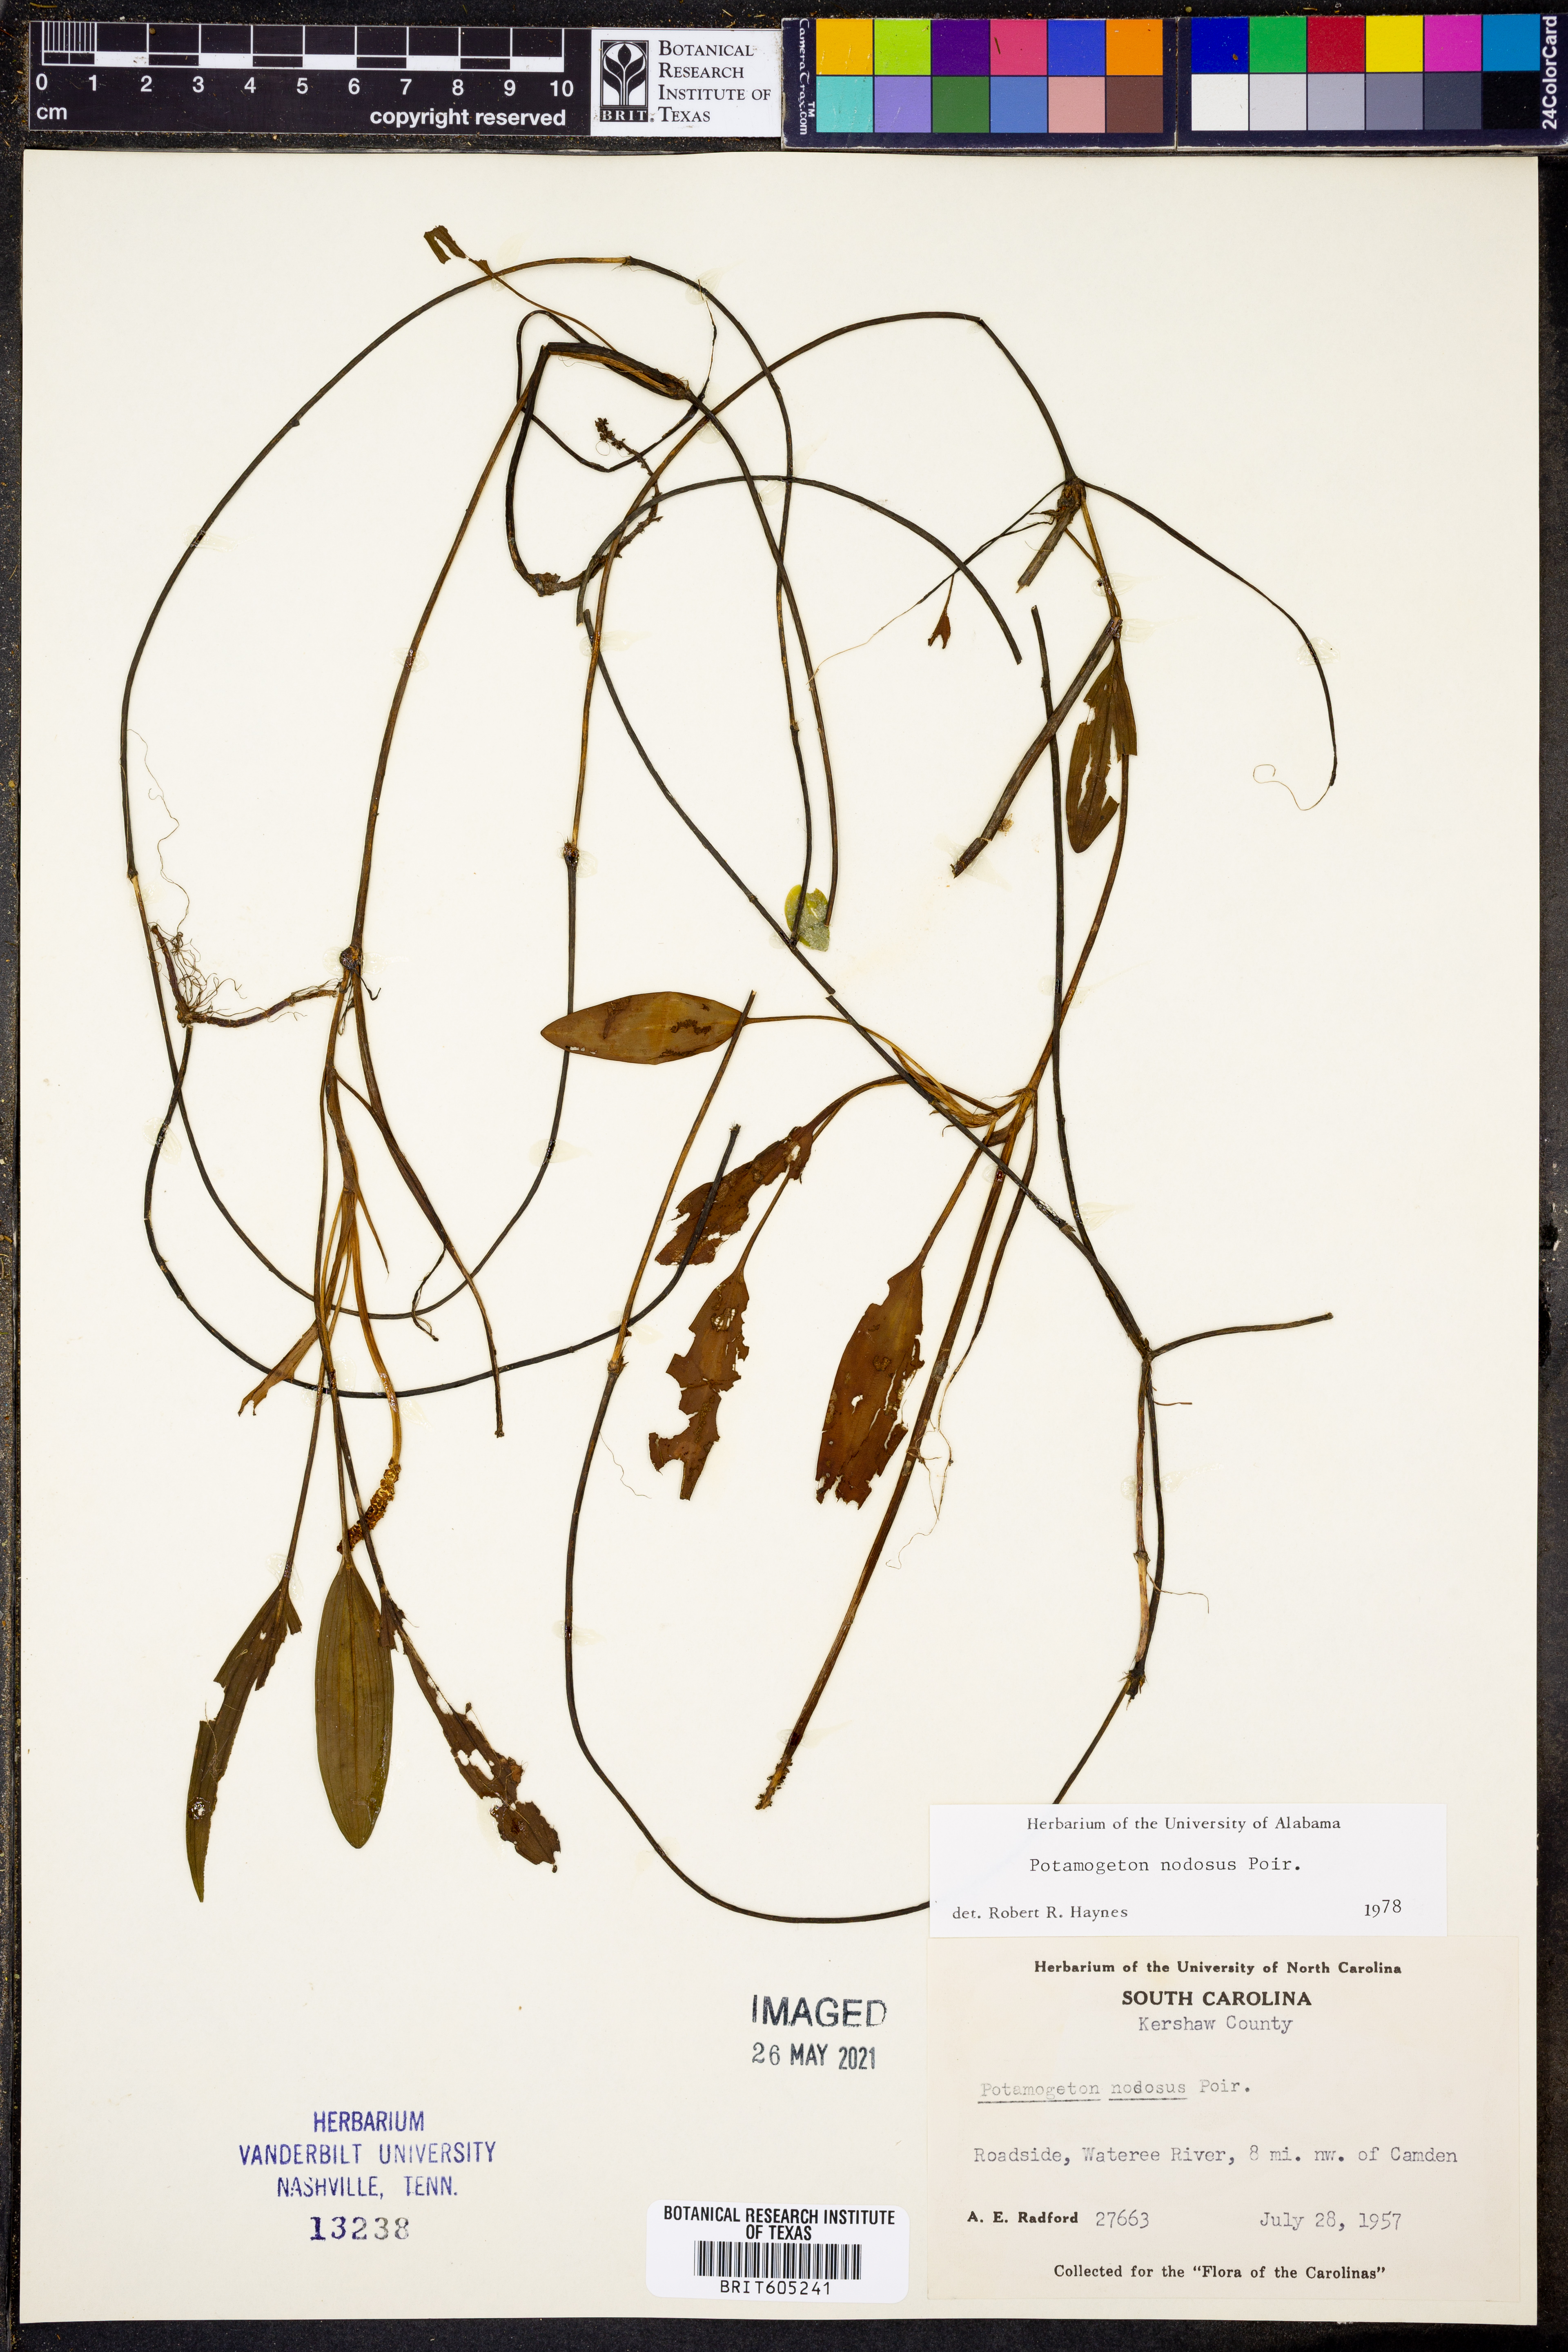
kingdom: Plantae
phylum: Tracheophyta
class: Liliopsida
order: Alismatales
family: Potamogetonaceae
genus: Potamogeton
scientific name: Potamogeton nodosus
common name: Loddon pondweed
